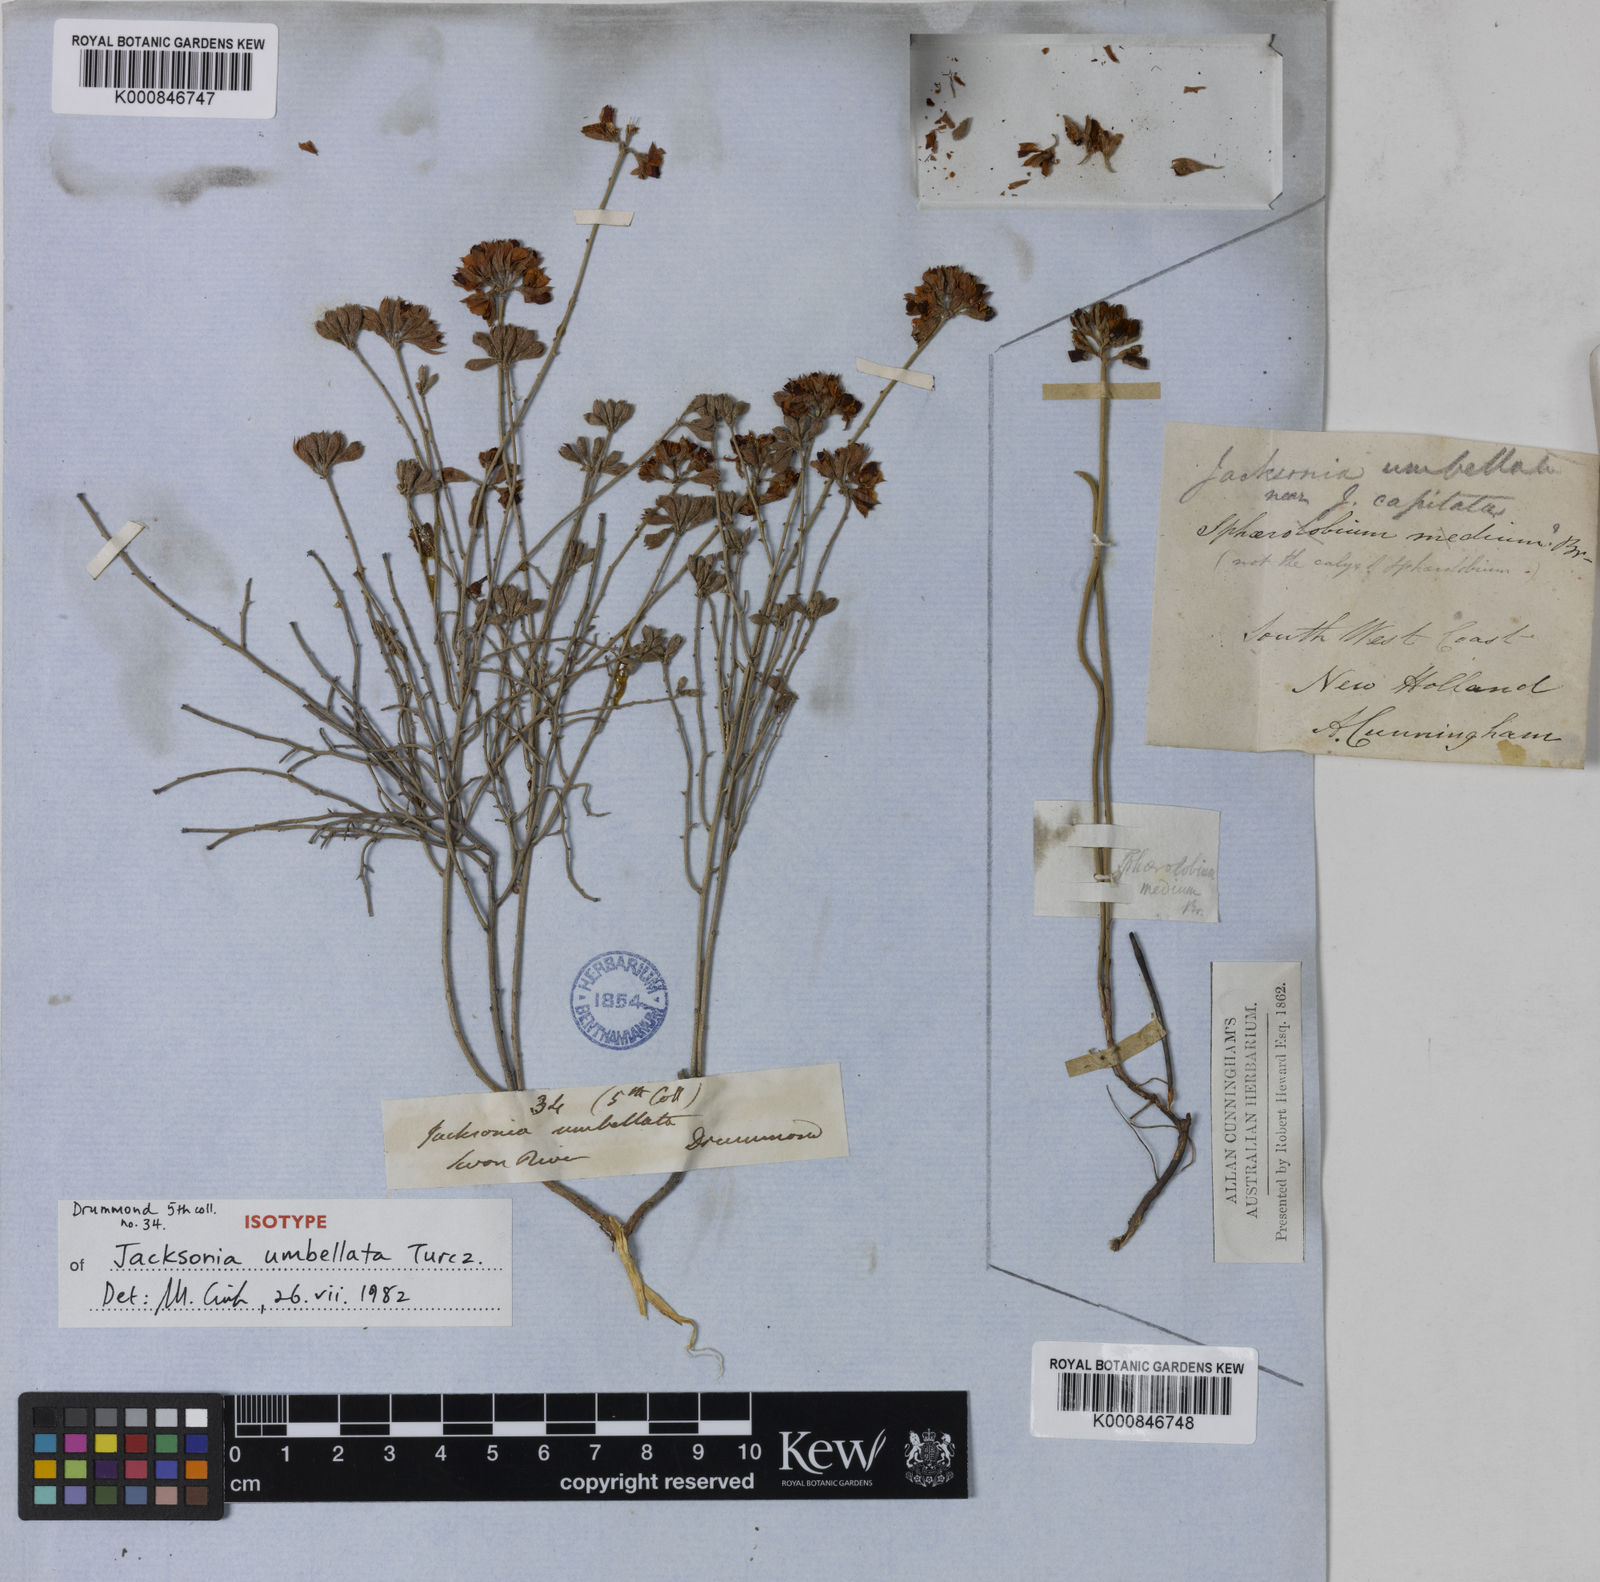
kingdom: Plantae
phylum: Tracheophyta
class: Magnoliopsida
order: Fabales
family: Fabaceae
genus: Jacksonia
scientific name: Jacksonia capitata
